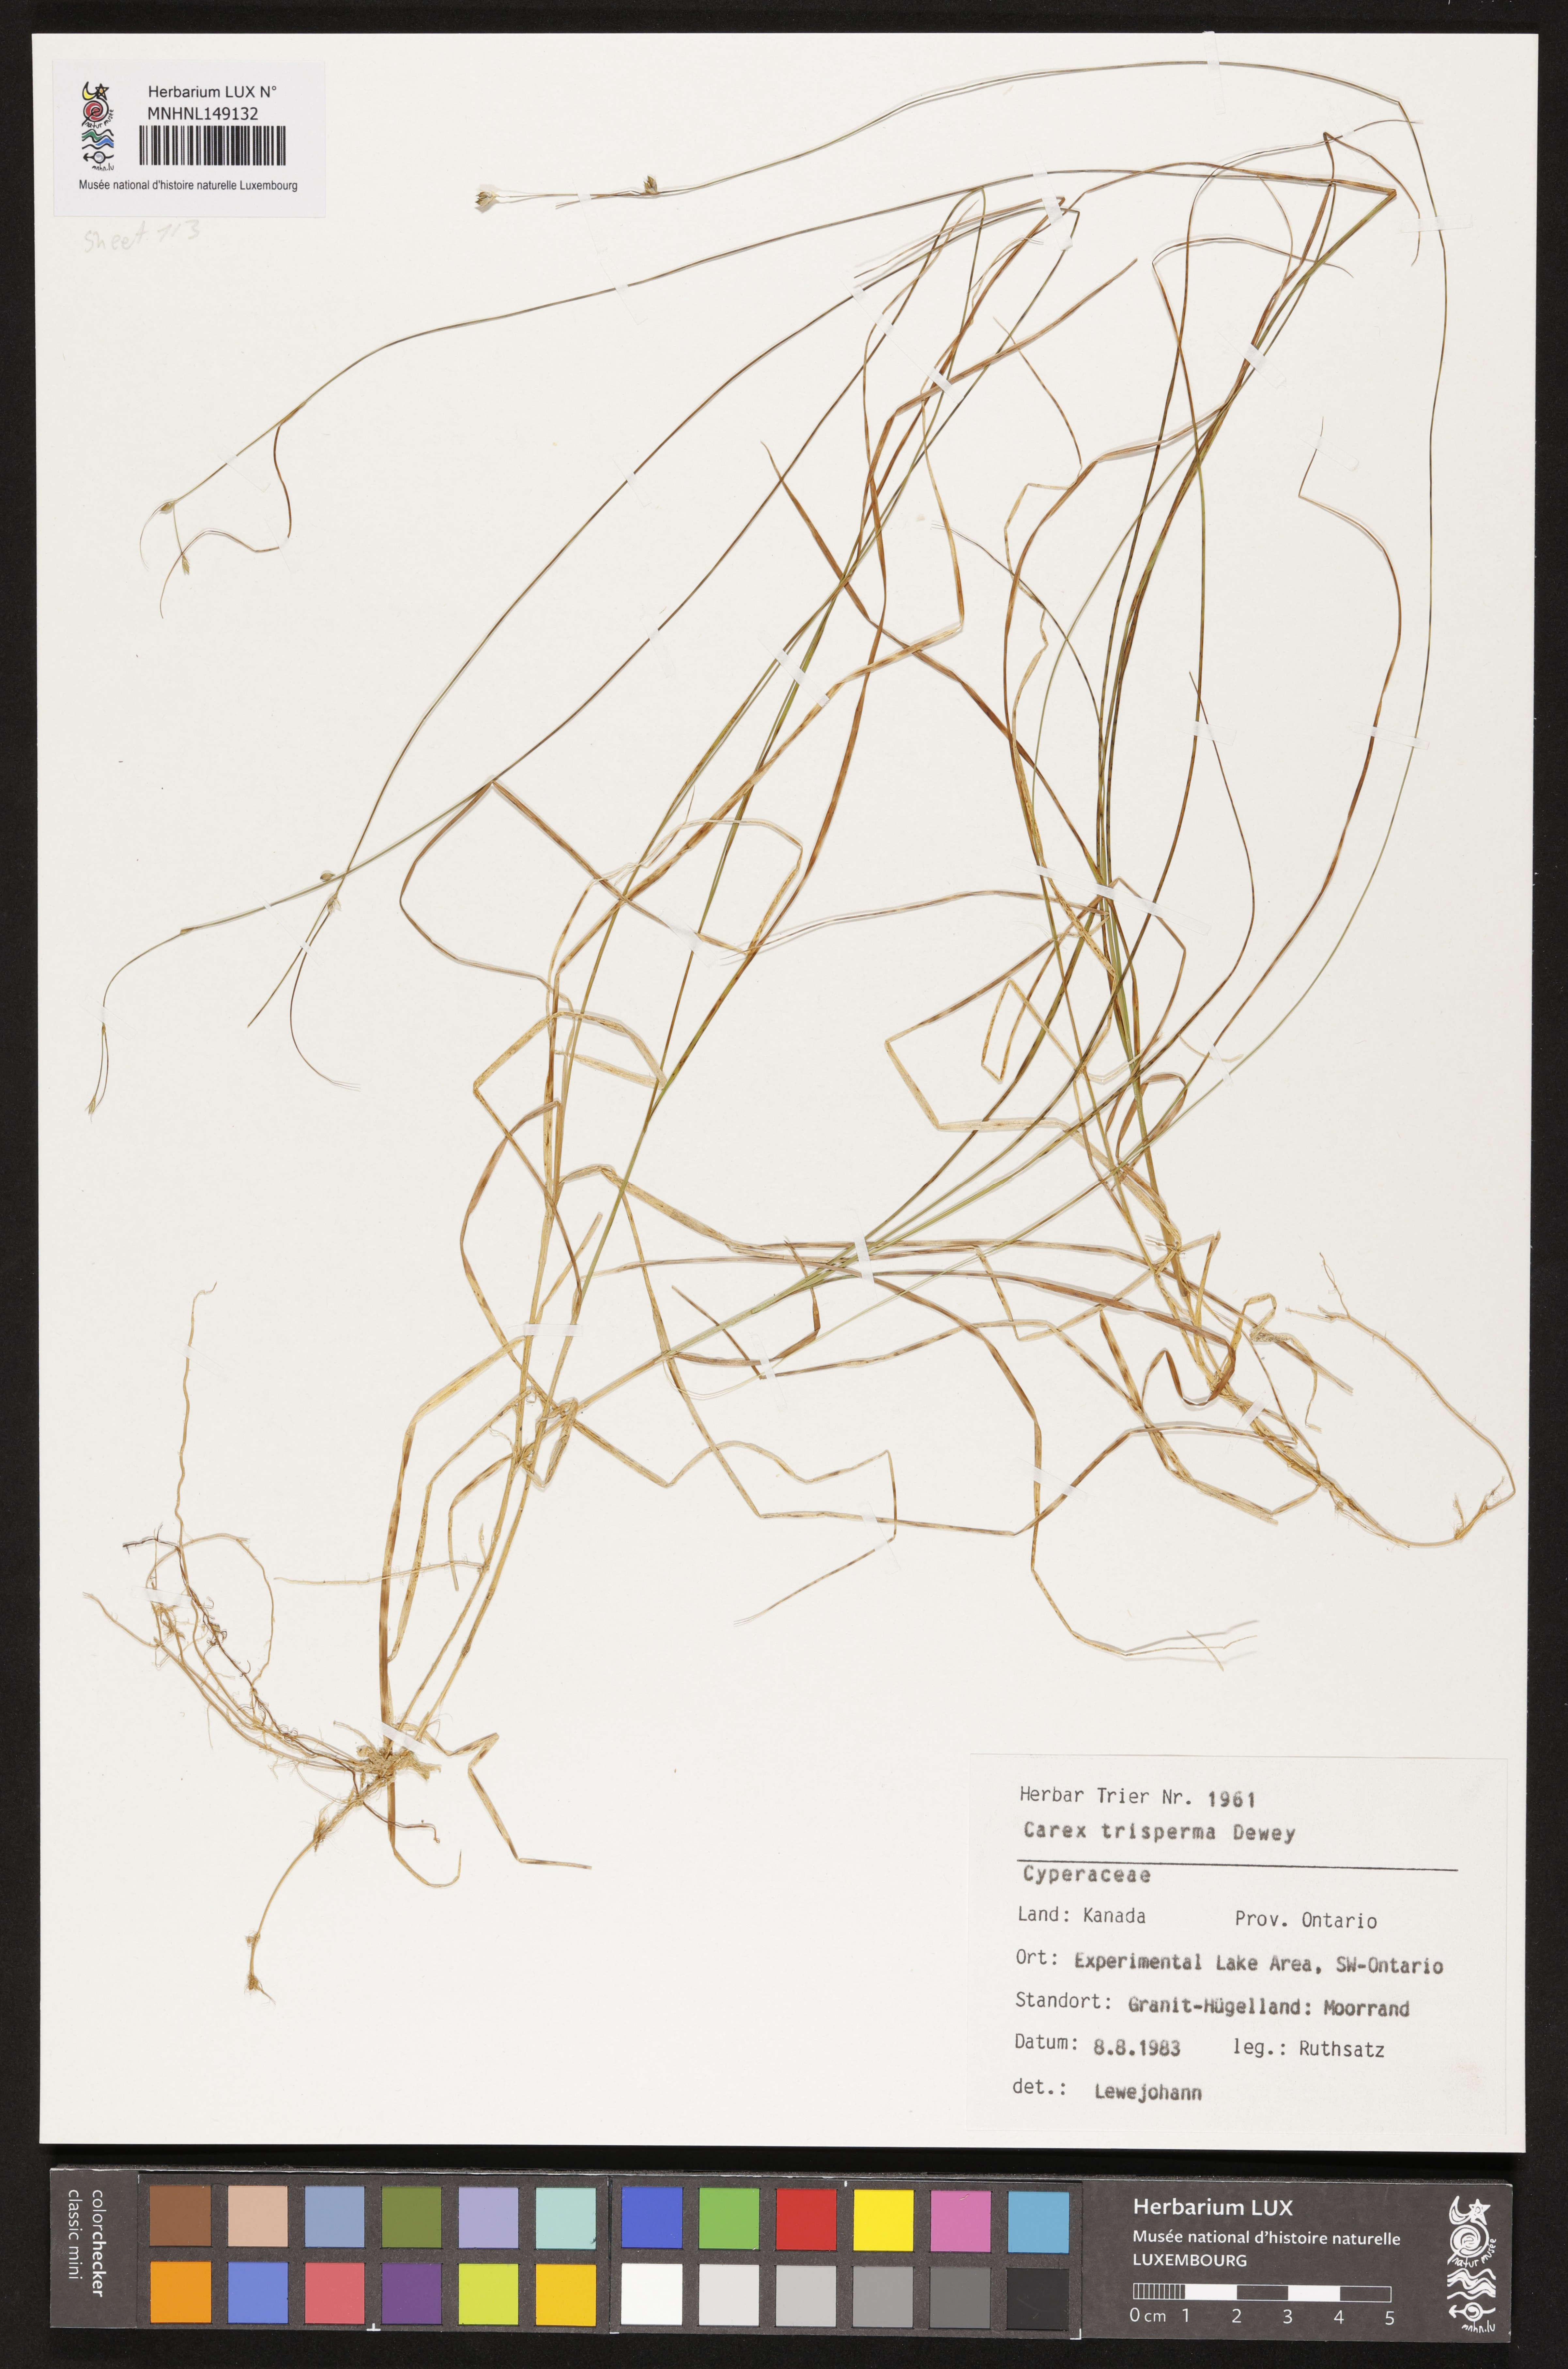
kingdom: Plantae
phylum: Tracheophyta
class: Liliopsida
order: Poales
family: Cyperaceae
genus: Carex
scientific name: Carex trisperma
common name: Three-seeded sedge
